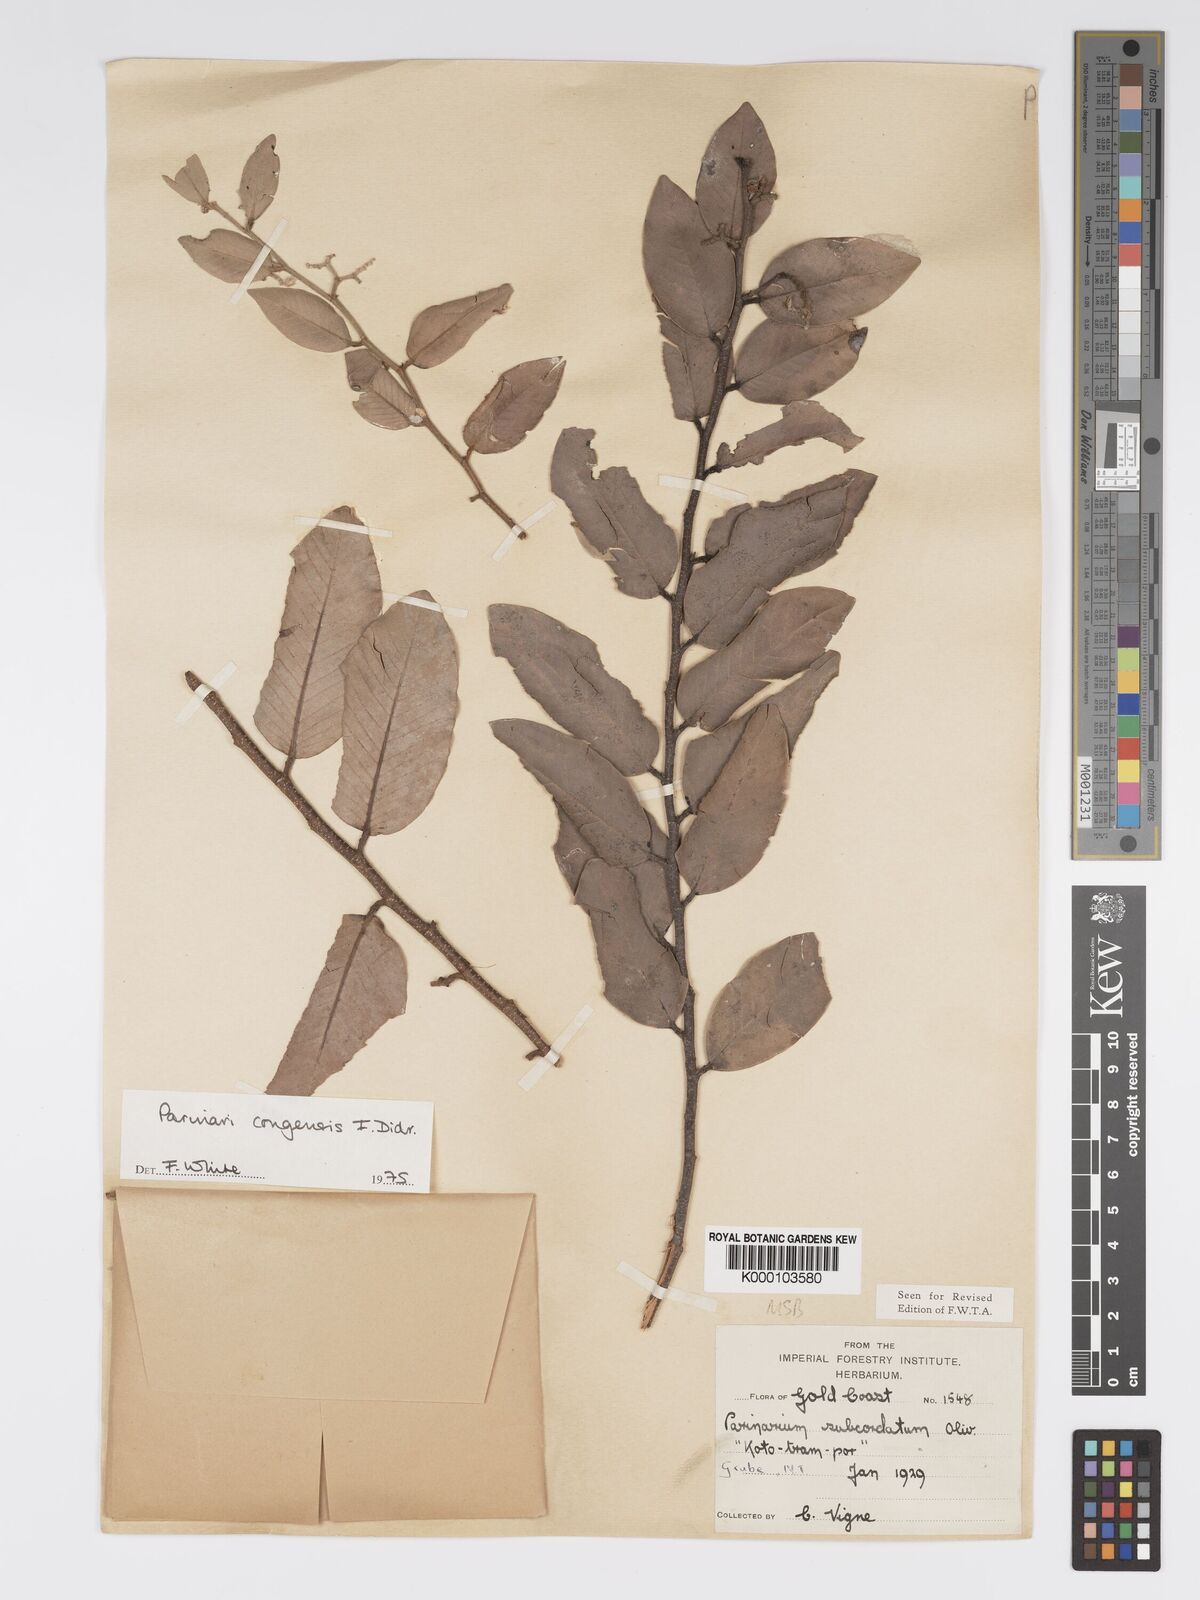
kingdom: Plantae
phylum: Tracheophyta
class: Magnoliopsida
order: Malpighiales
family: Chrysobalanaceae
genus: Parinari
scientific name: Parinari congensis
